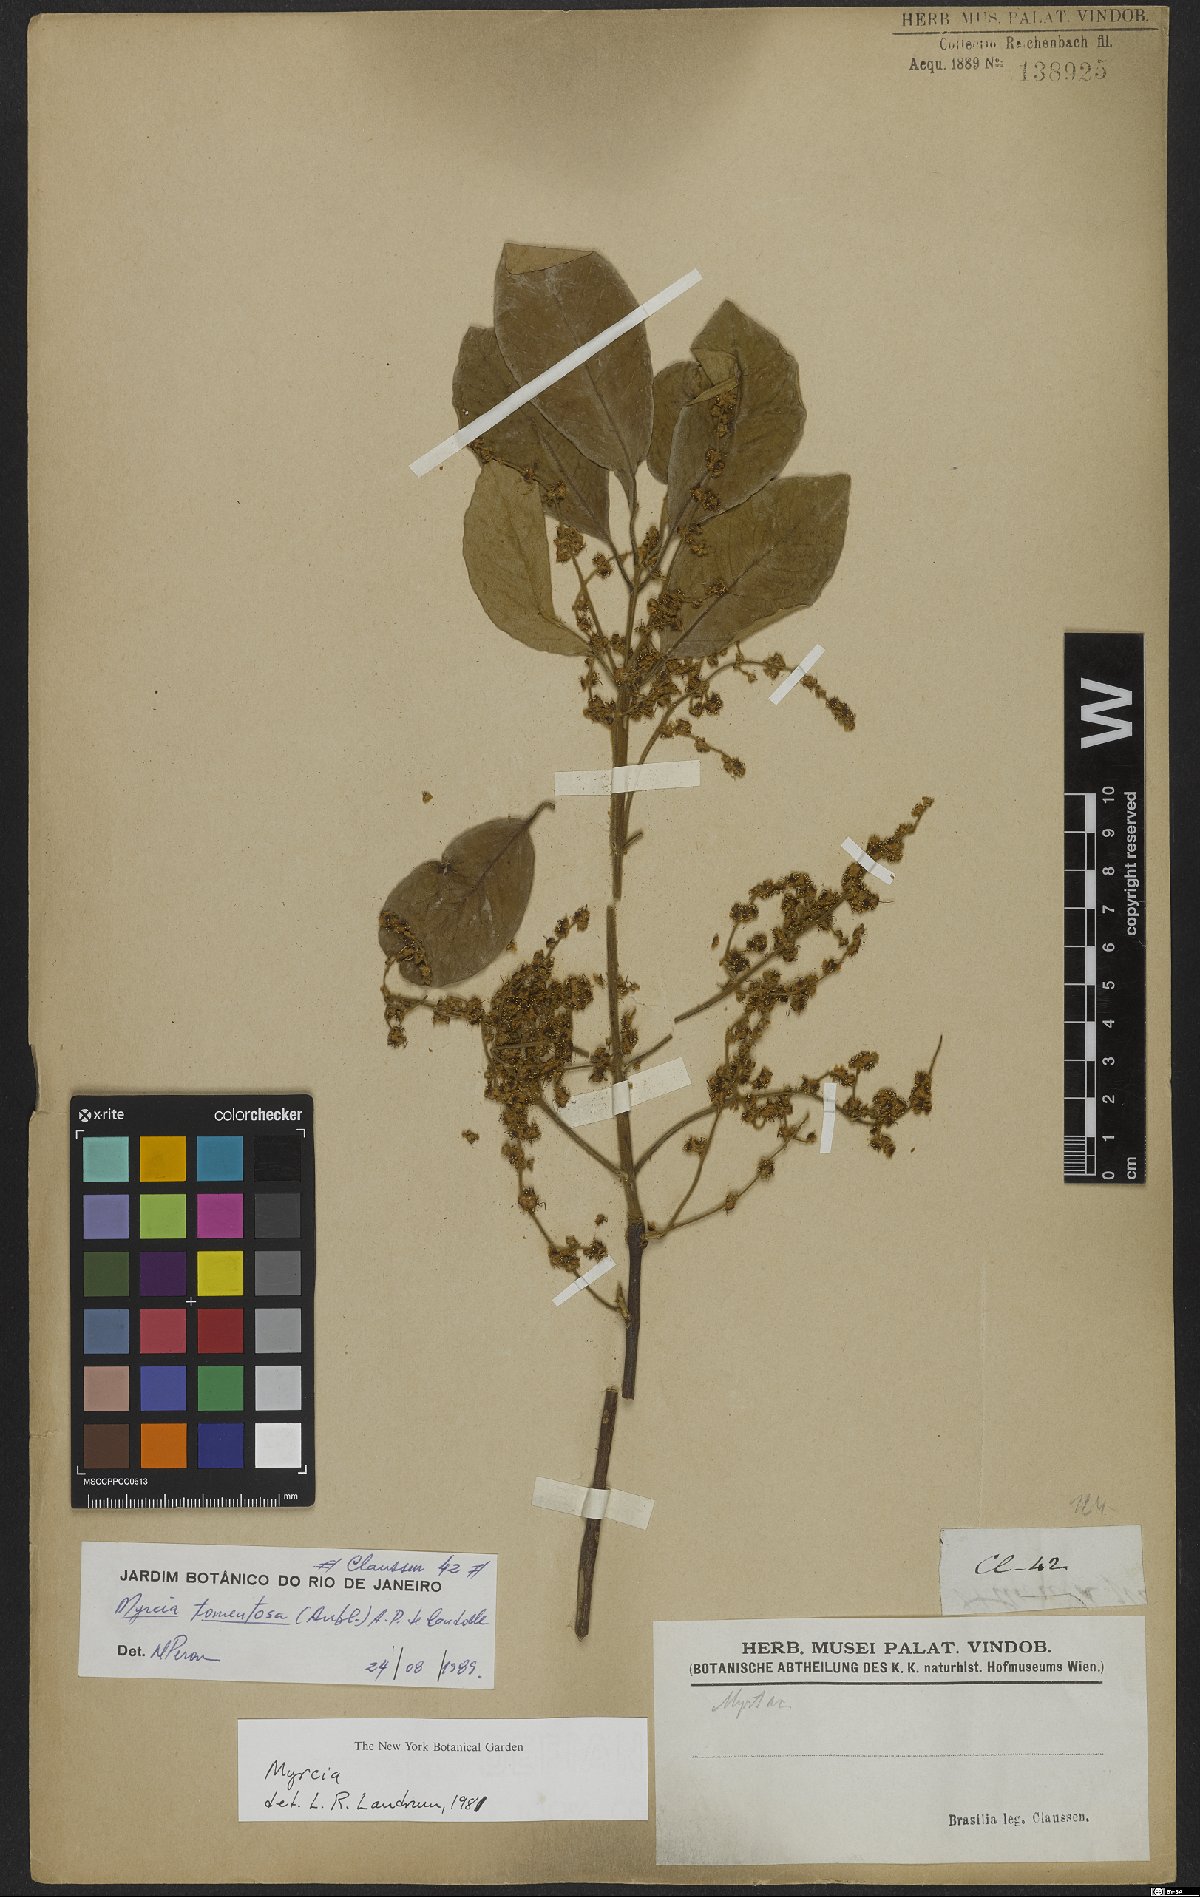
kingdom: Plantae
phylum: Tracheophyta
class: Magnoliopsida
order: Myrtales
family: Myrtaceae
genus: Myrcia
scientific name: Myrcia tomentosa
